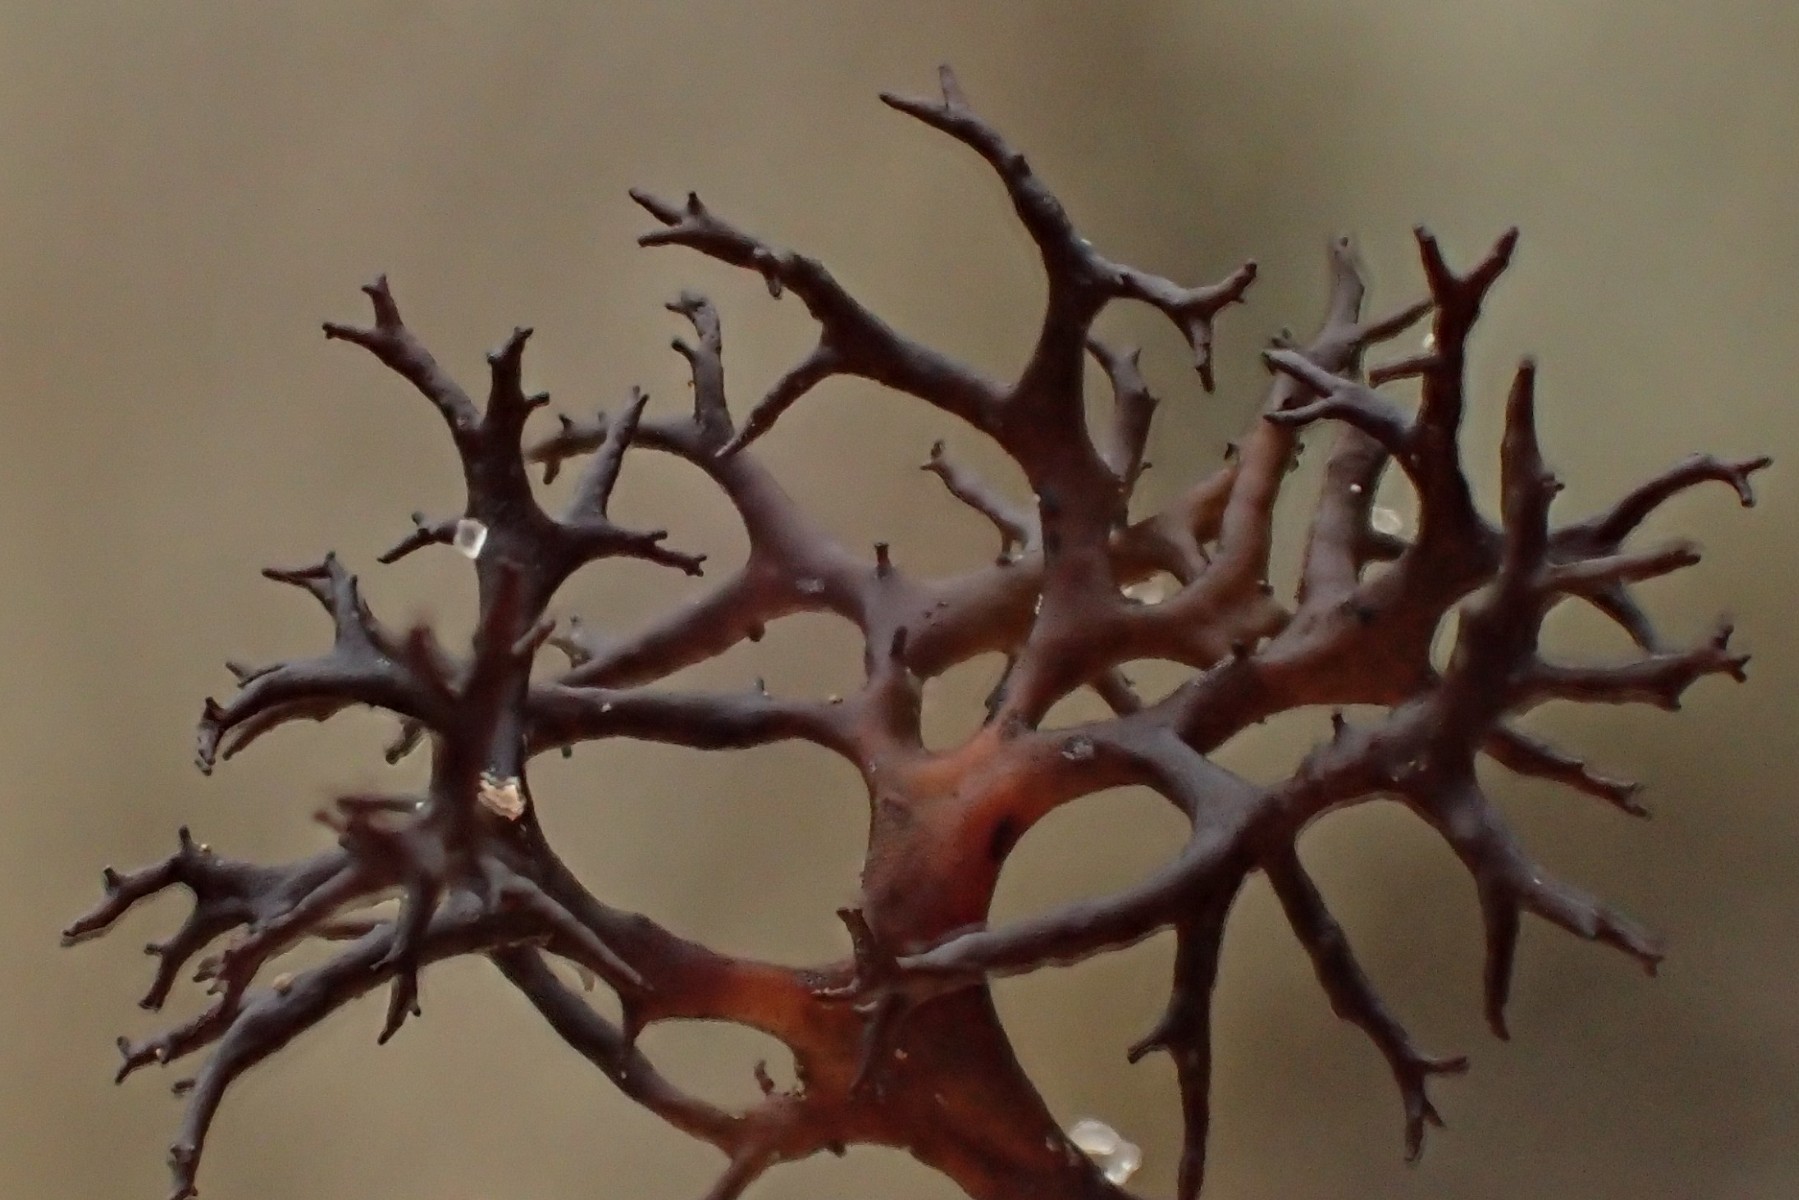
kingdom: Fungi
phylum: Ascomycota
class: Lecanoromycetes
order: Lecanorales
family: Parmeliaceae
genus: Cetraria
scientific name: Cetraria muricata
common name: tue-tjørnelav
